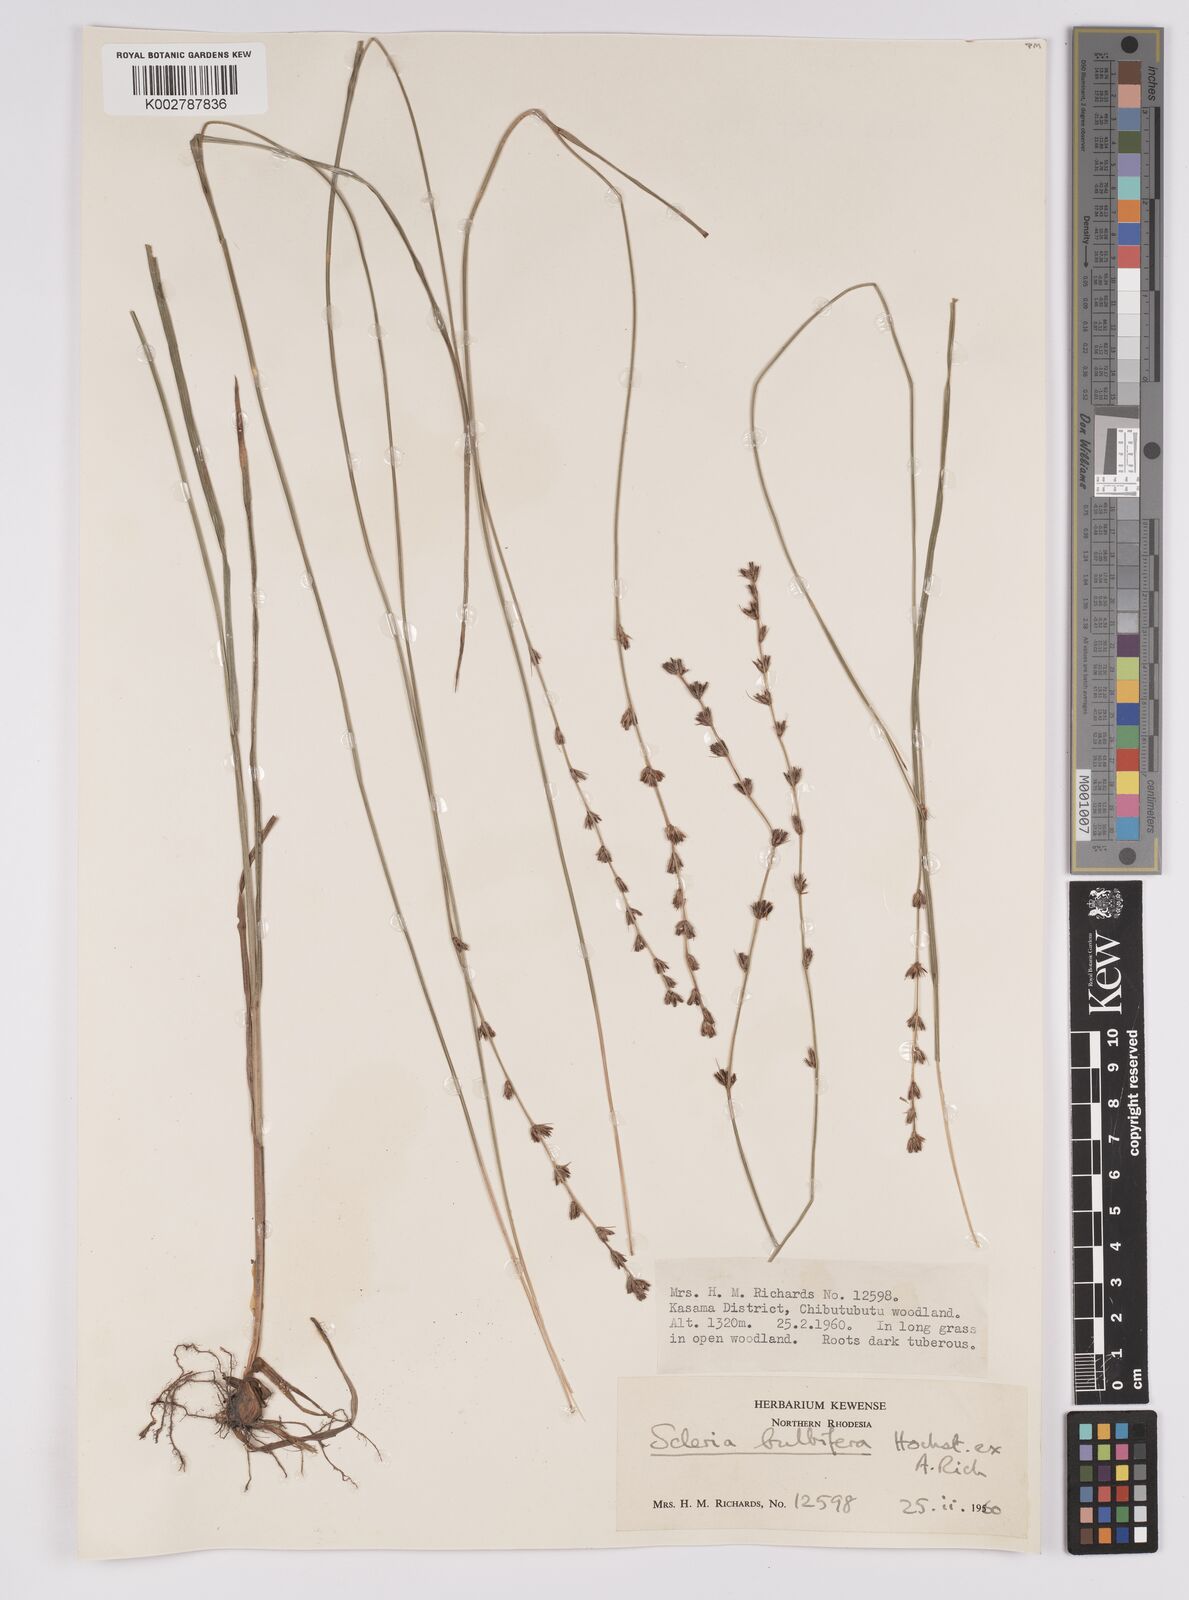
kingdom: Plantae
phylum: Tracheophyta
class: Liliopsida
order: Poales
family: Cyperaceae
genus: Scleria
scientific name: Scleria bulbifera
